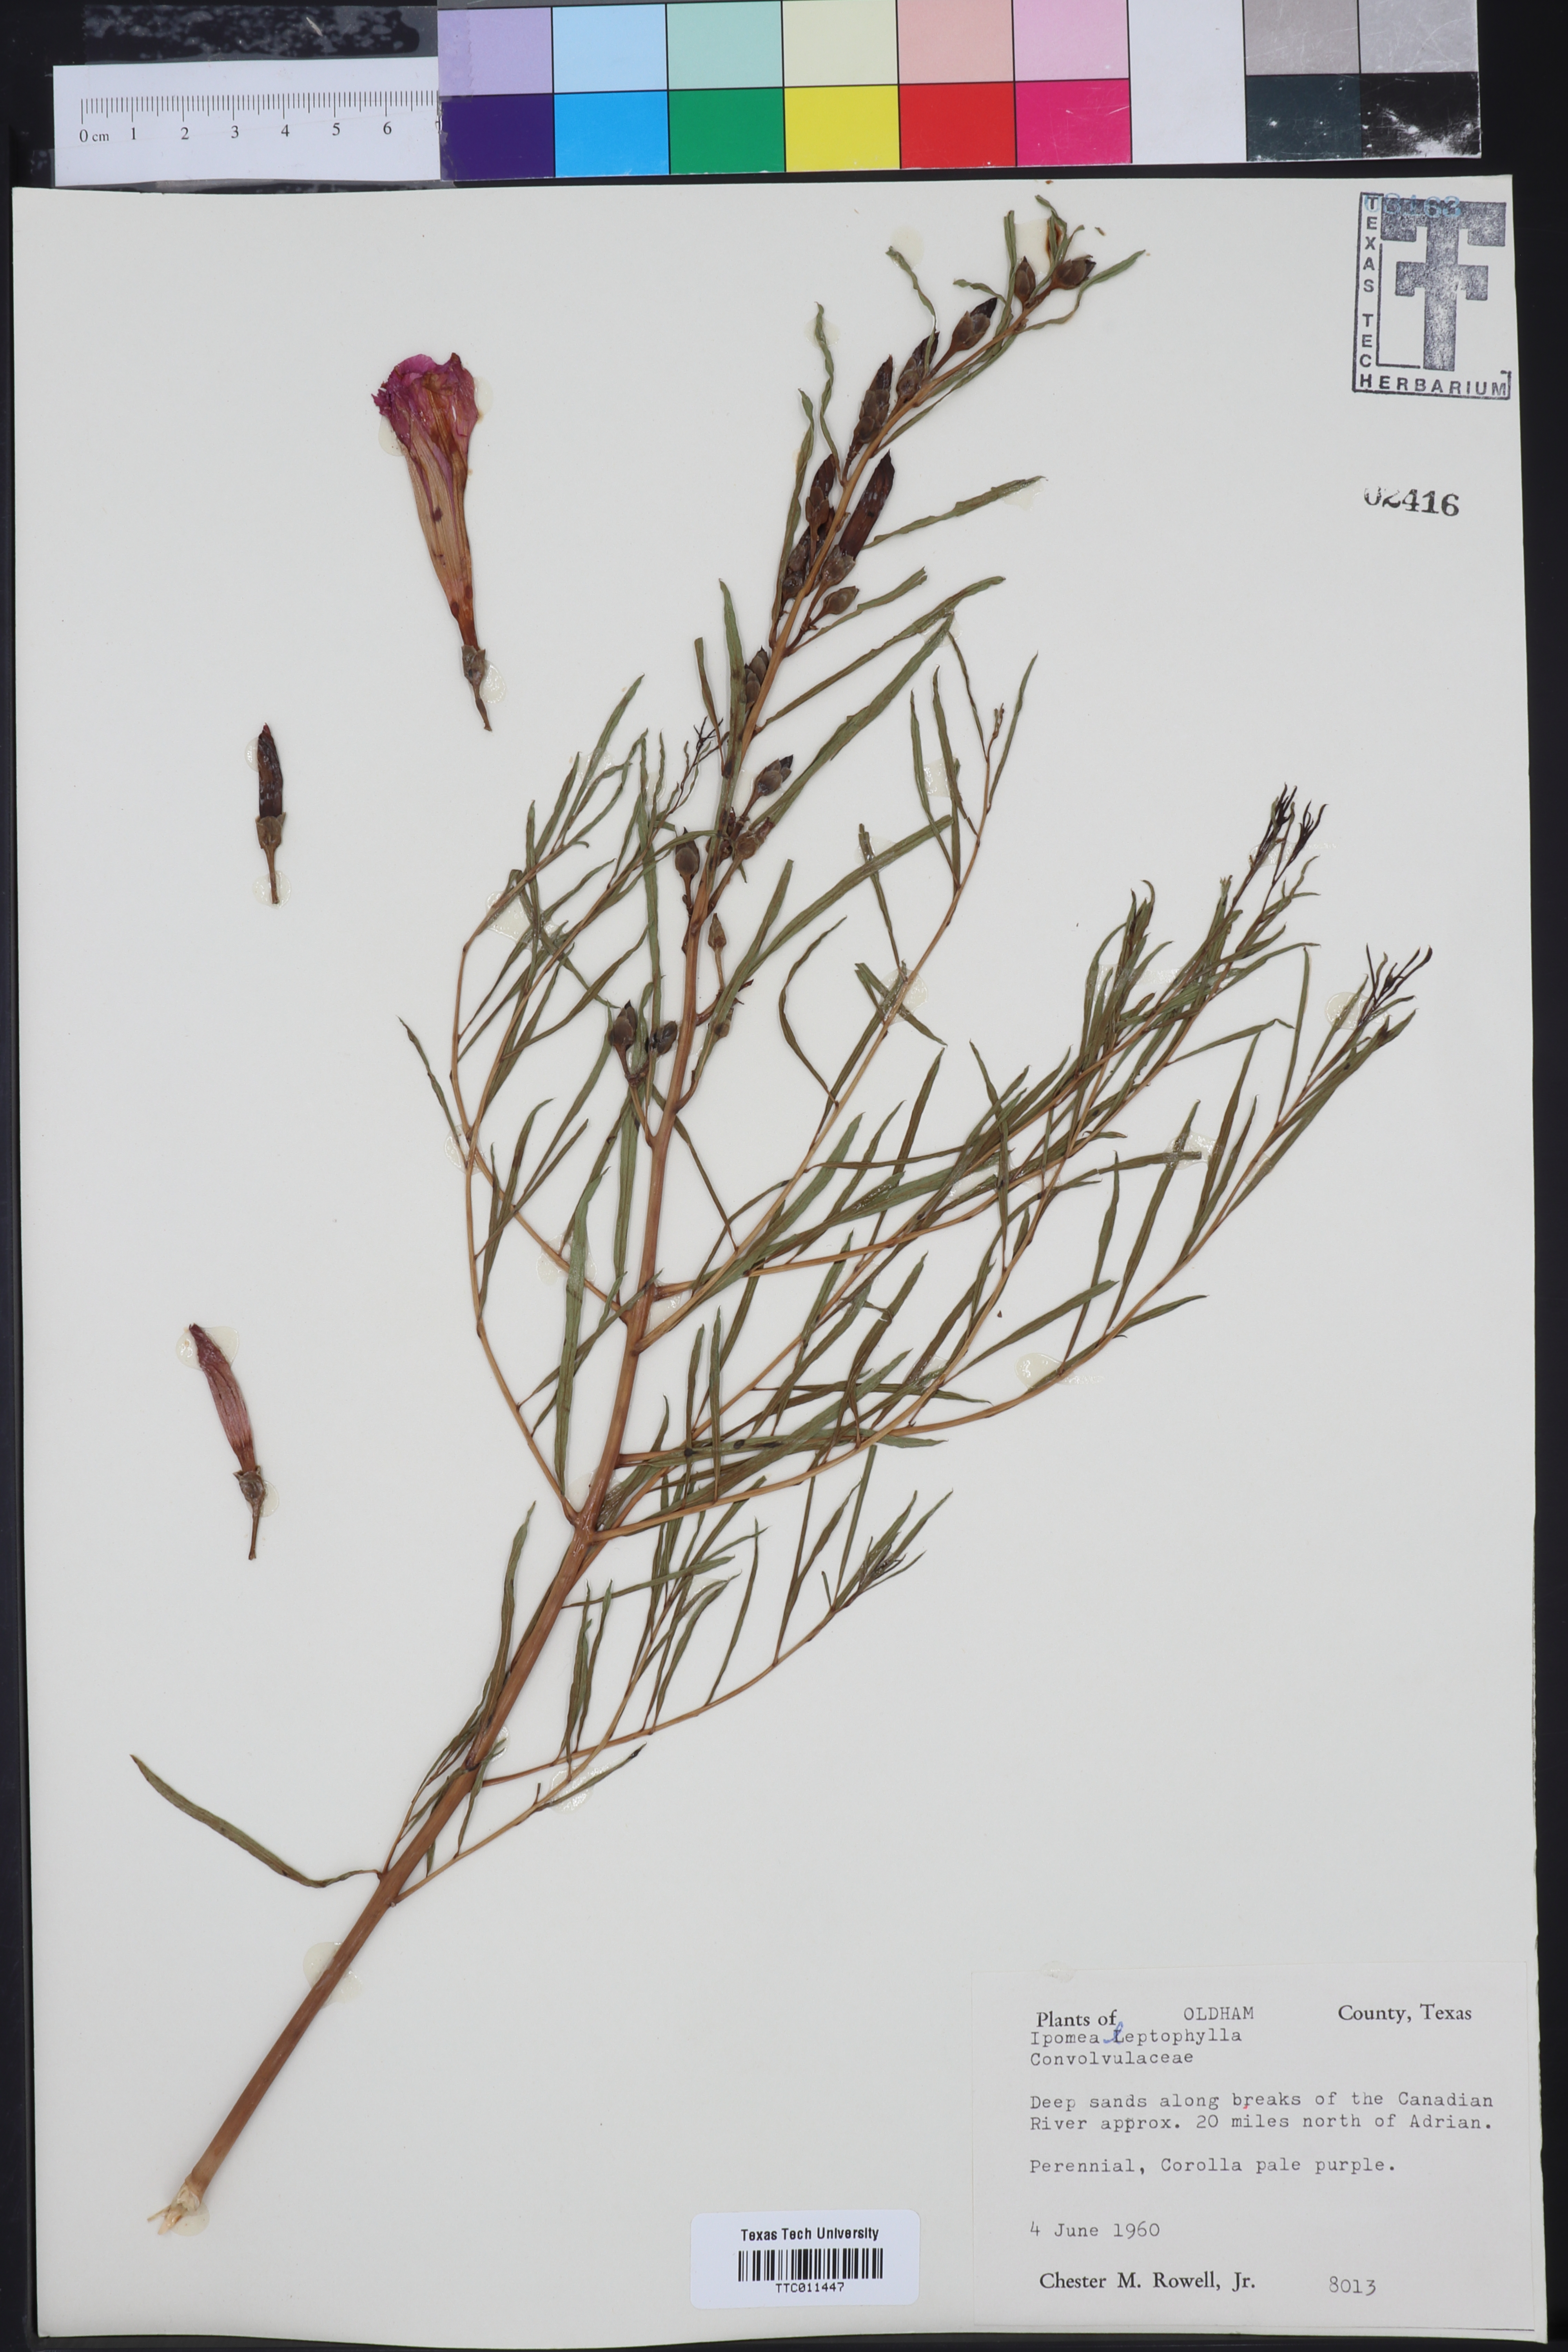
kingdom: Plantae
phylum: Tracheophyta
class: Magnoliopsida
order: Solanales
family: Convolvulaceae
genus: Ipomoea
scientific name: Ipomoea leptophylla
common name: Bush moonflower
